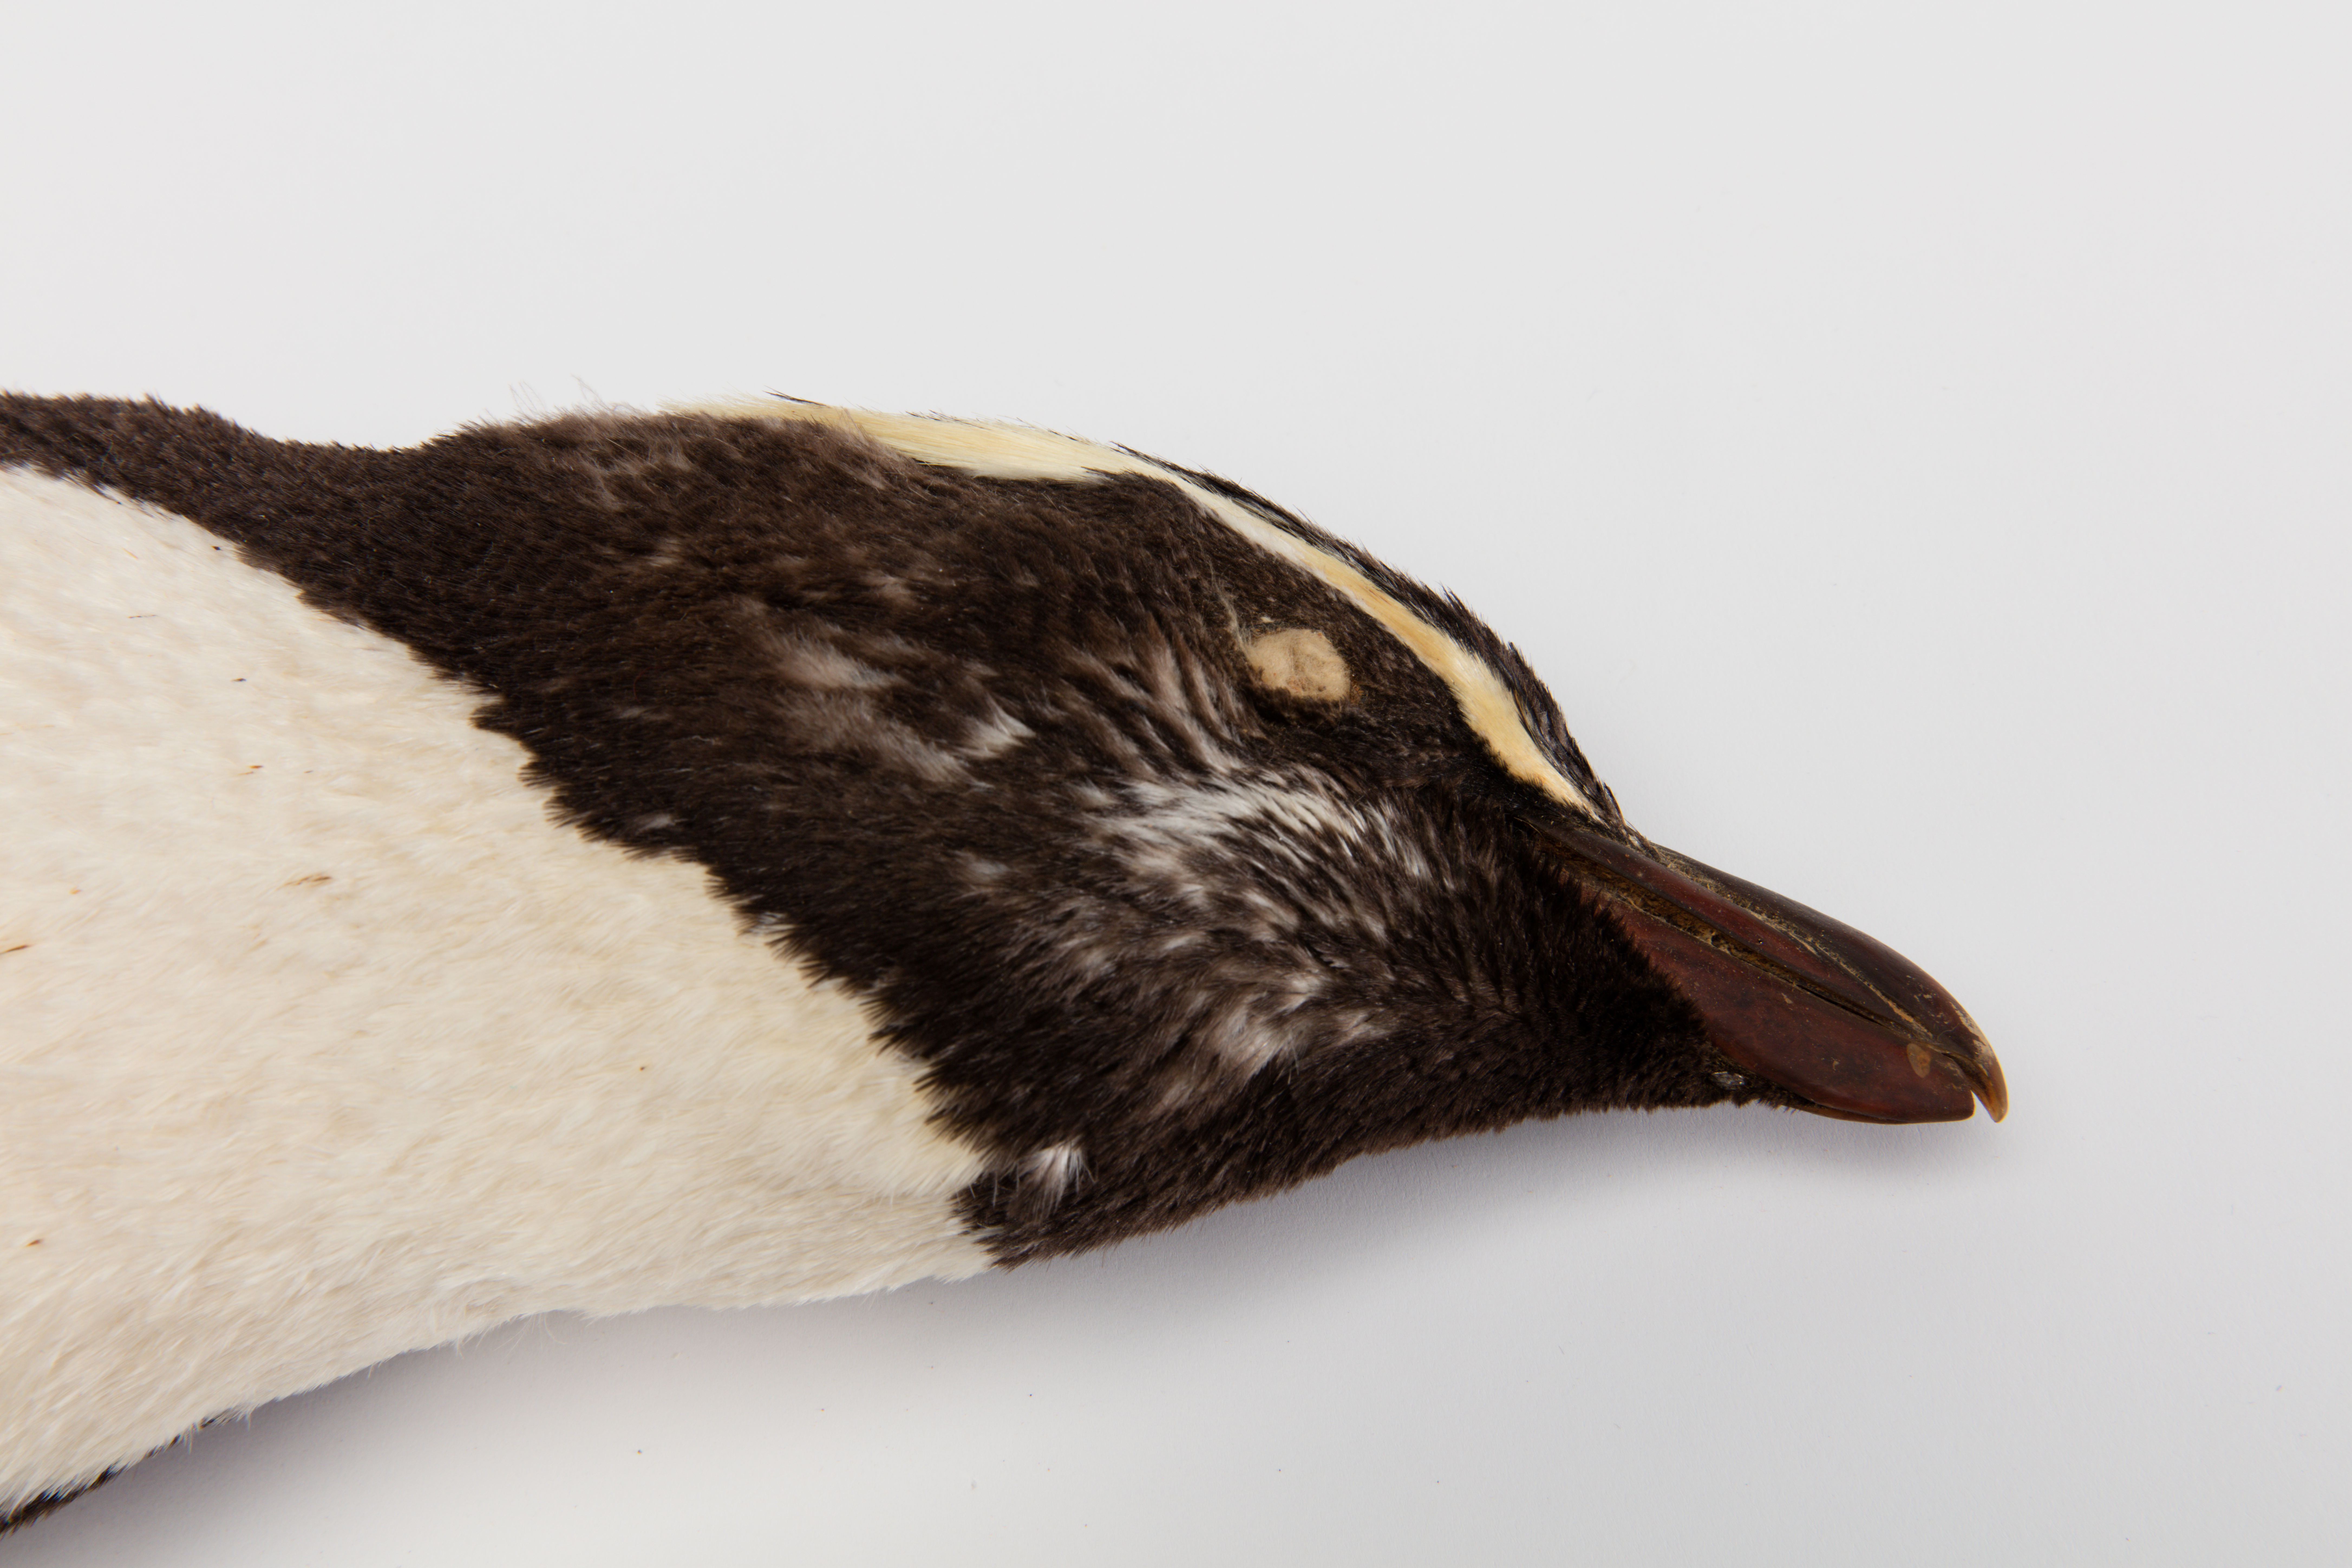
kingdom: Animalia
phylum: Chordata
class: Aves
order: Sphenisciformes
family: Spheniscidae
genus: Eudyptes
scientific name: Eudyptes pachyrhynchus
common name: Fiordland penguin
